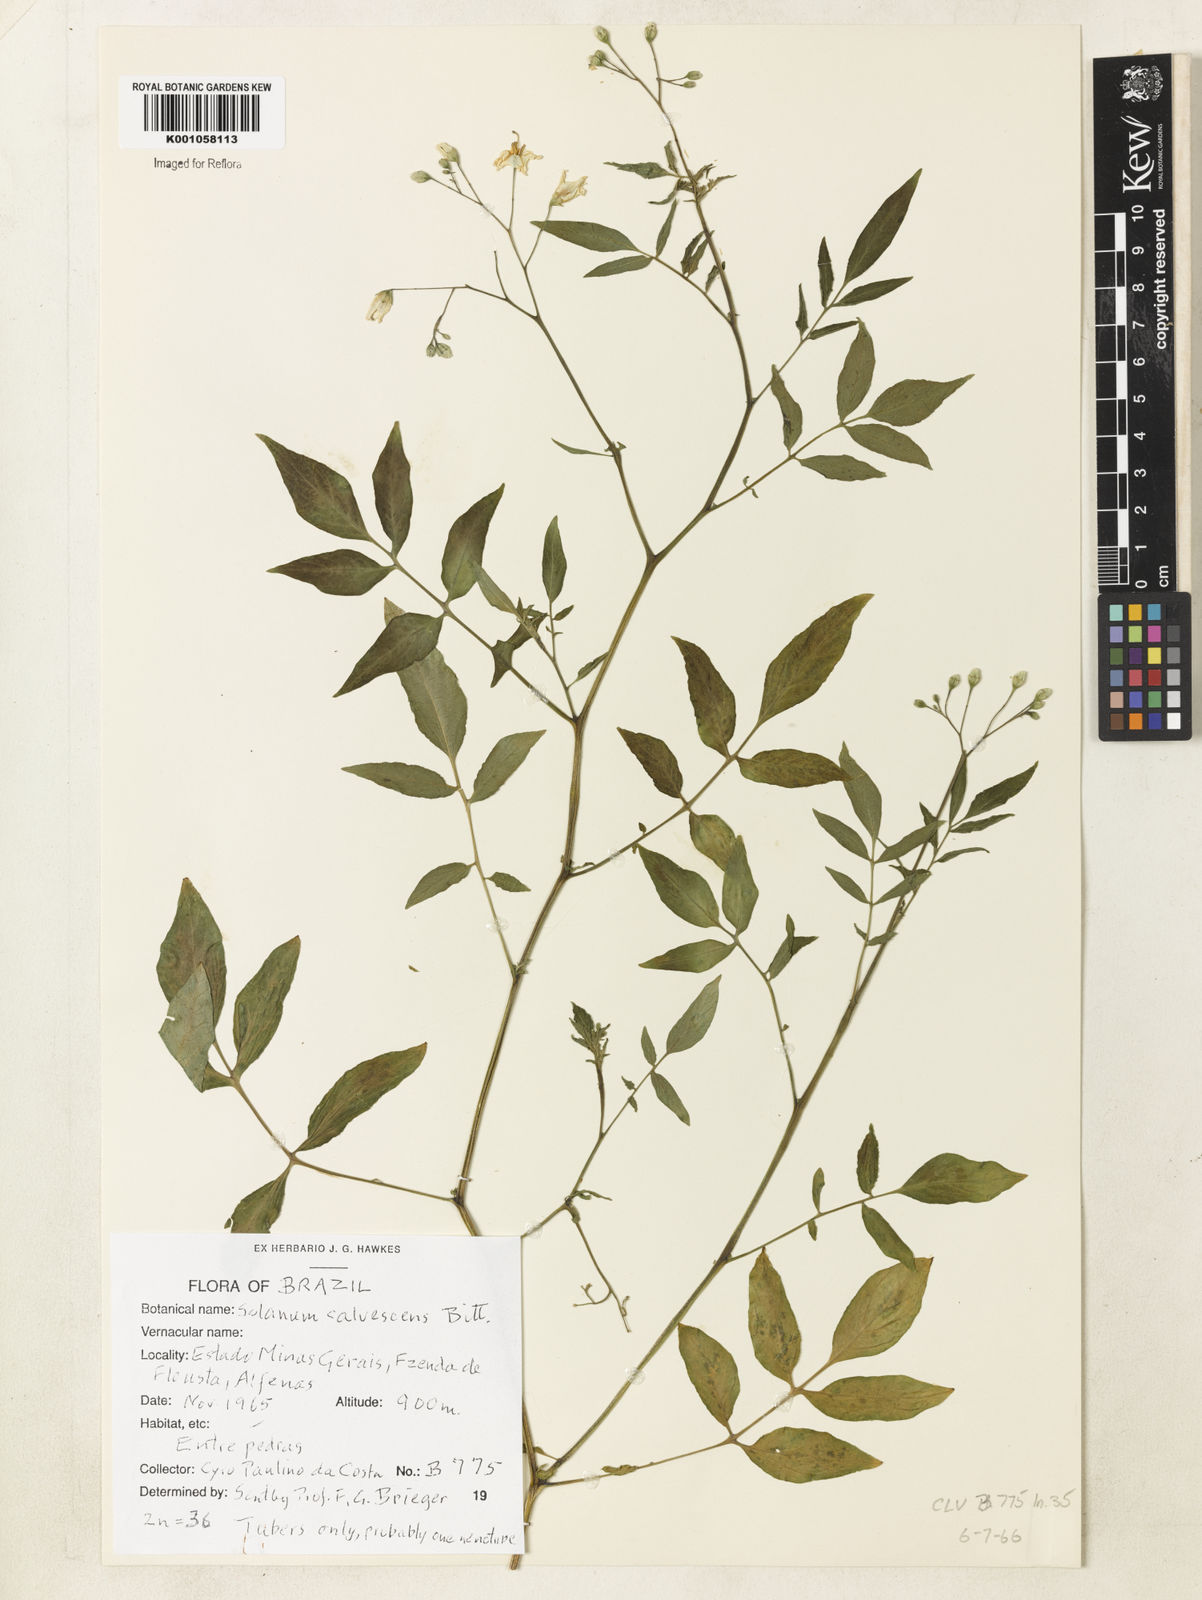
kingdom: Plantae
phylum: Tracheophyta
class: Magnoliopsida
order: Solanales
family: Solanaceae
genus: Solanum
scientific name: Solanum chacoense
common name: Chaco potato
